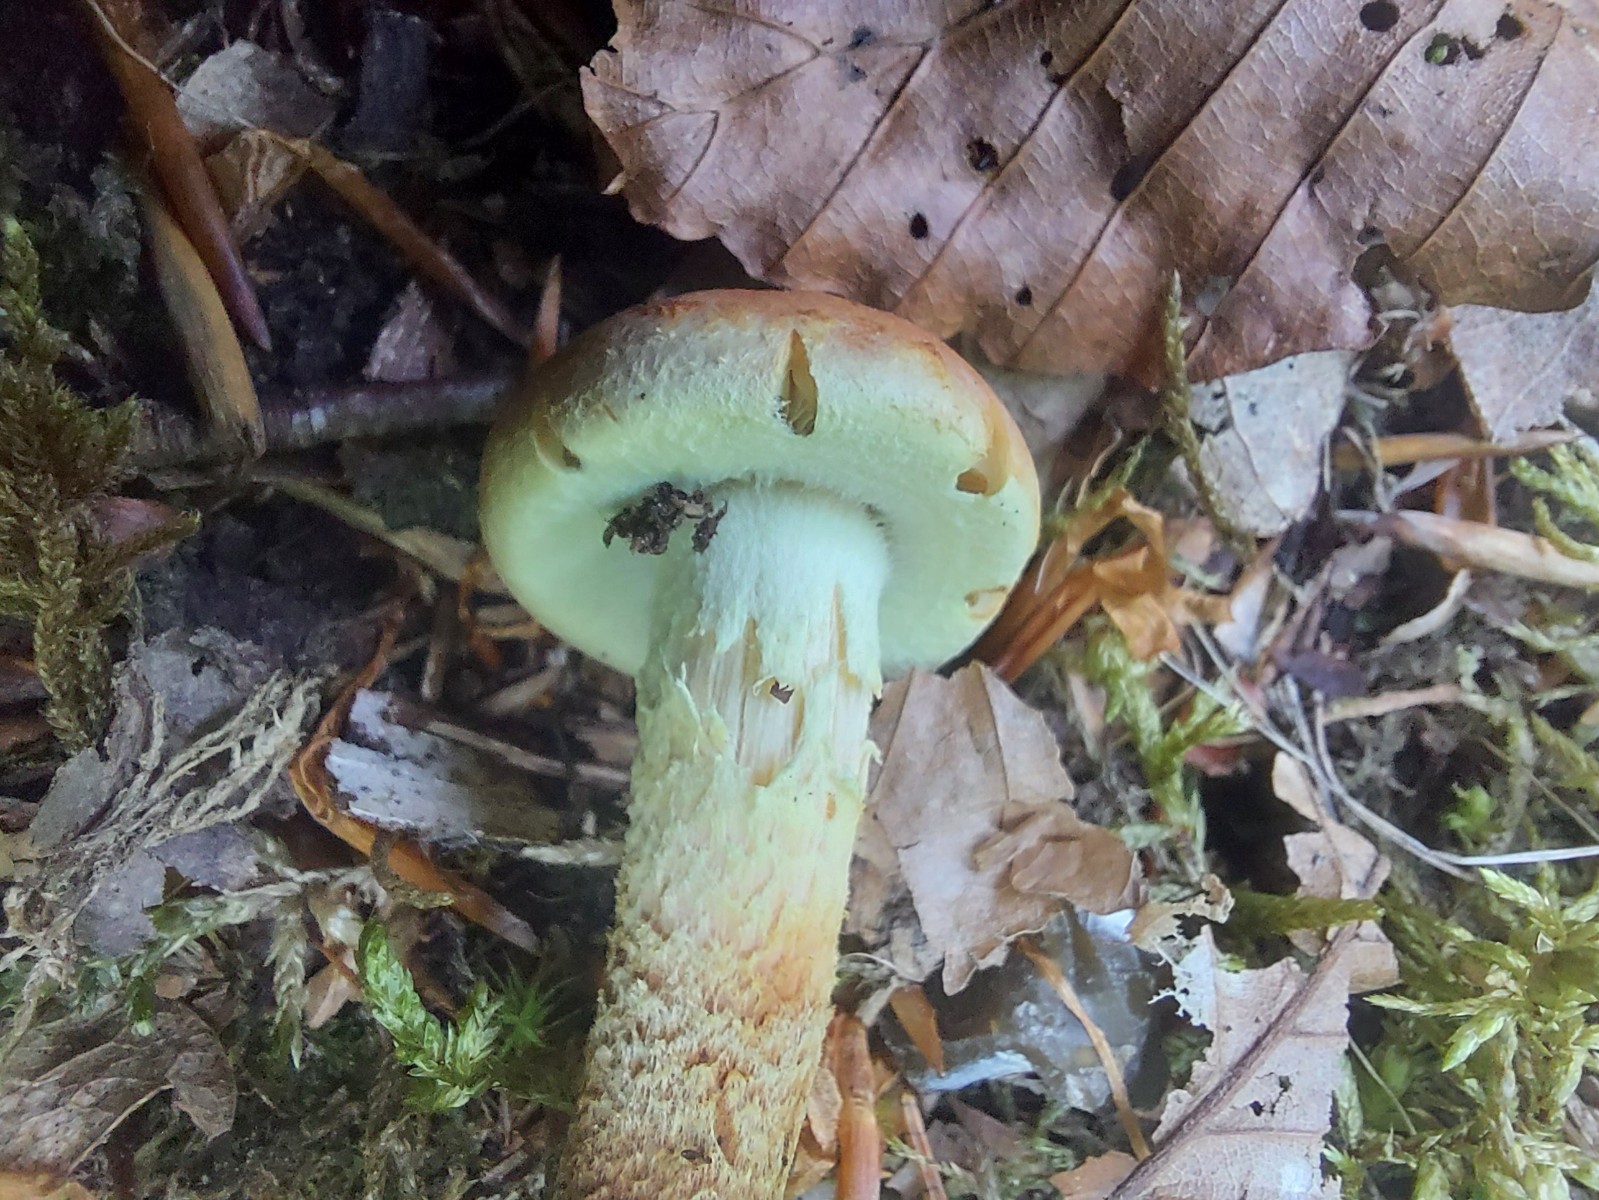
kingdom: Fungi
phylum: Basidiomycota
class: Agaricomycetes
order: Agaricales
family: Strophariaceae
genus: Hypholoma
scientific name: Hypholoma lateritium
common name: teglrød svovlhat
